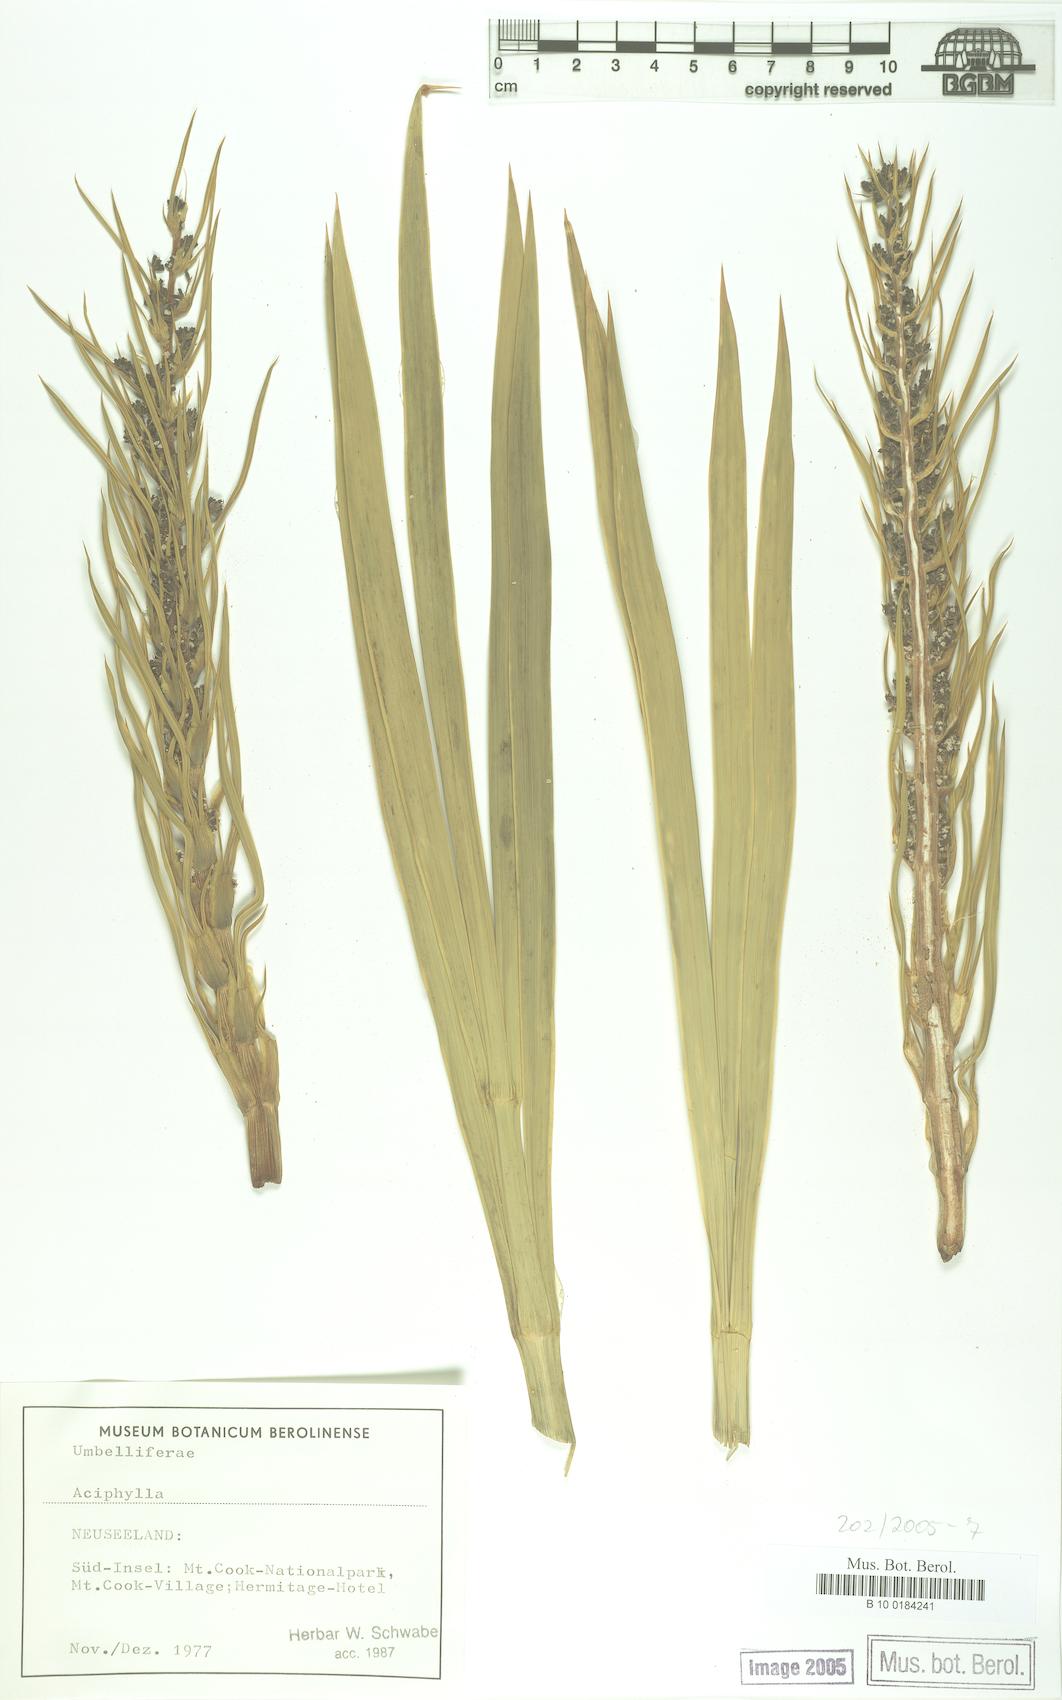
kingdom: Plantae
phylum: Tracheophyta
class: Magnoliopsida
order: Apiales
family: Apiaceae
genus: Aciphylla
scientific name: Aciphylla
